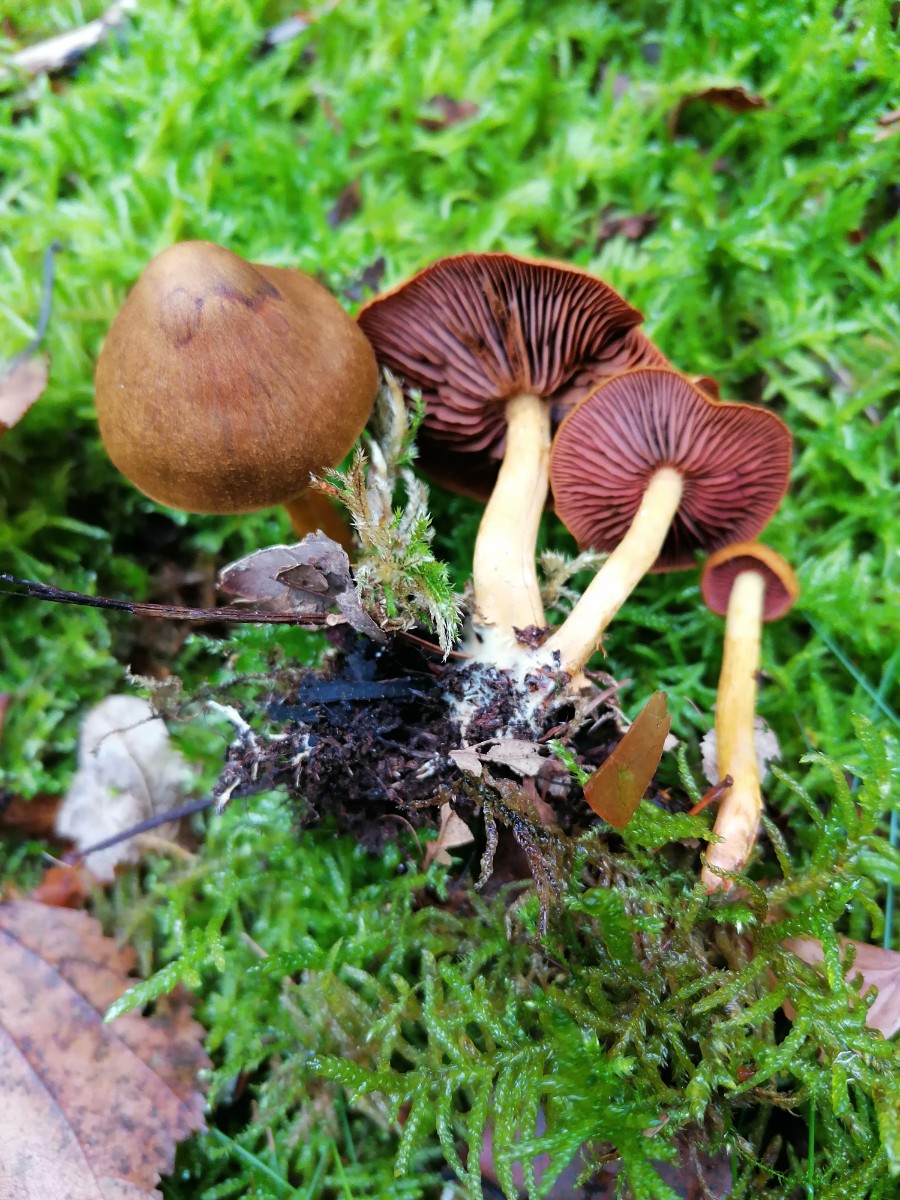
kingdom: Fungi
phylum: Basidiomycota
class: Agaricomycetes
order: Agaricales
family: Cortinariaceae
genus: Cortinarius
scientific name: Cortinarius
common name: cinnoberbladet slørhat
